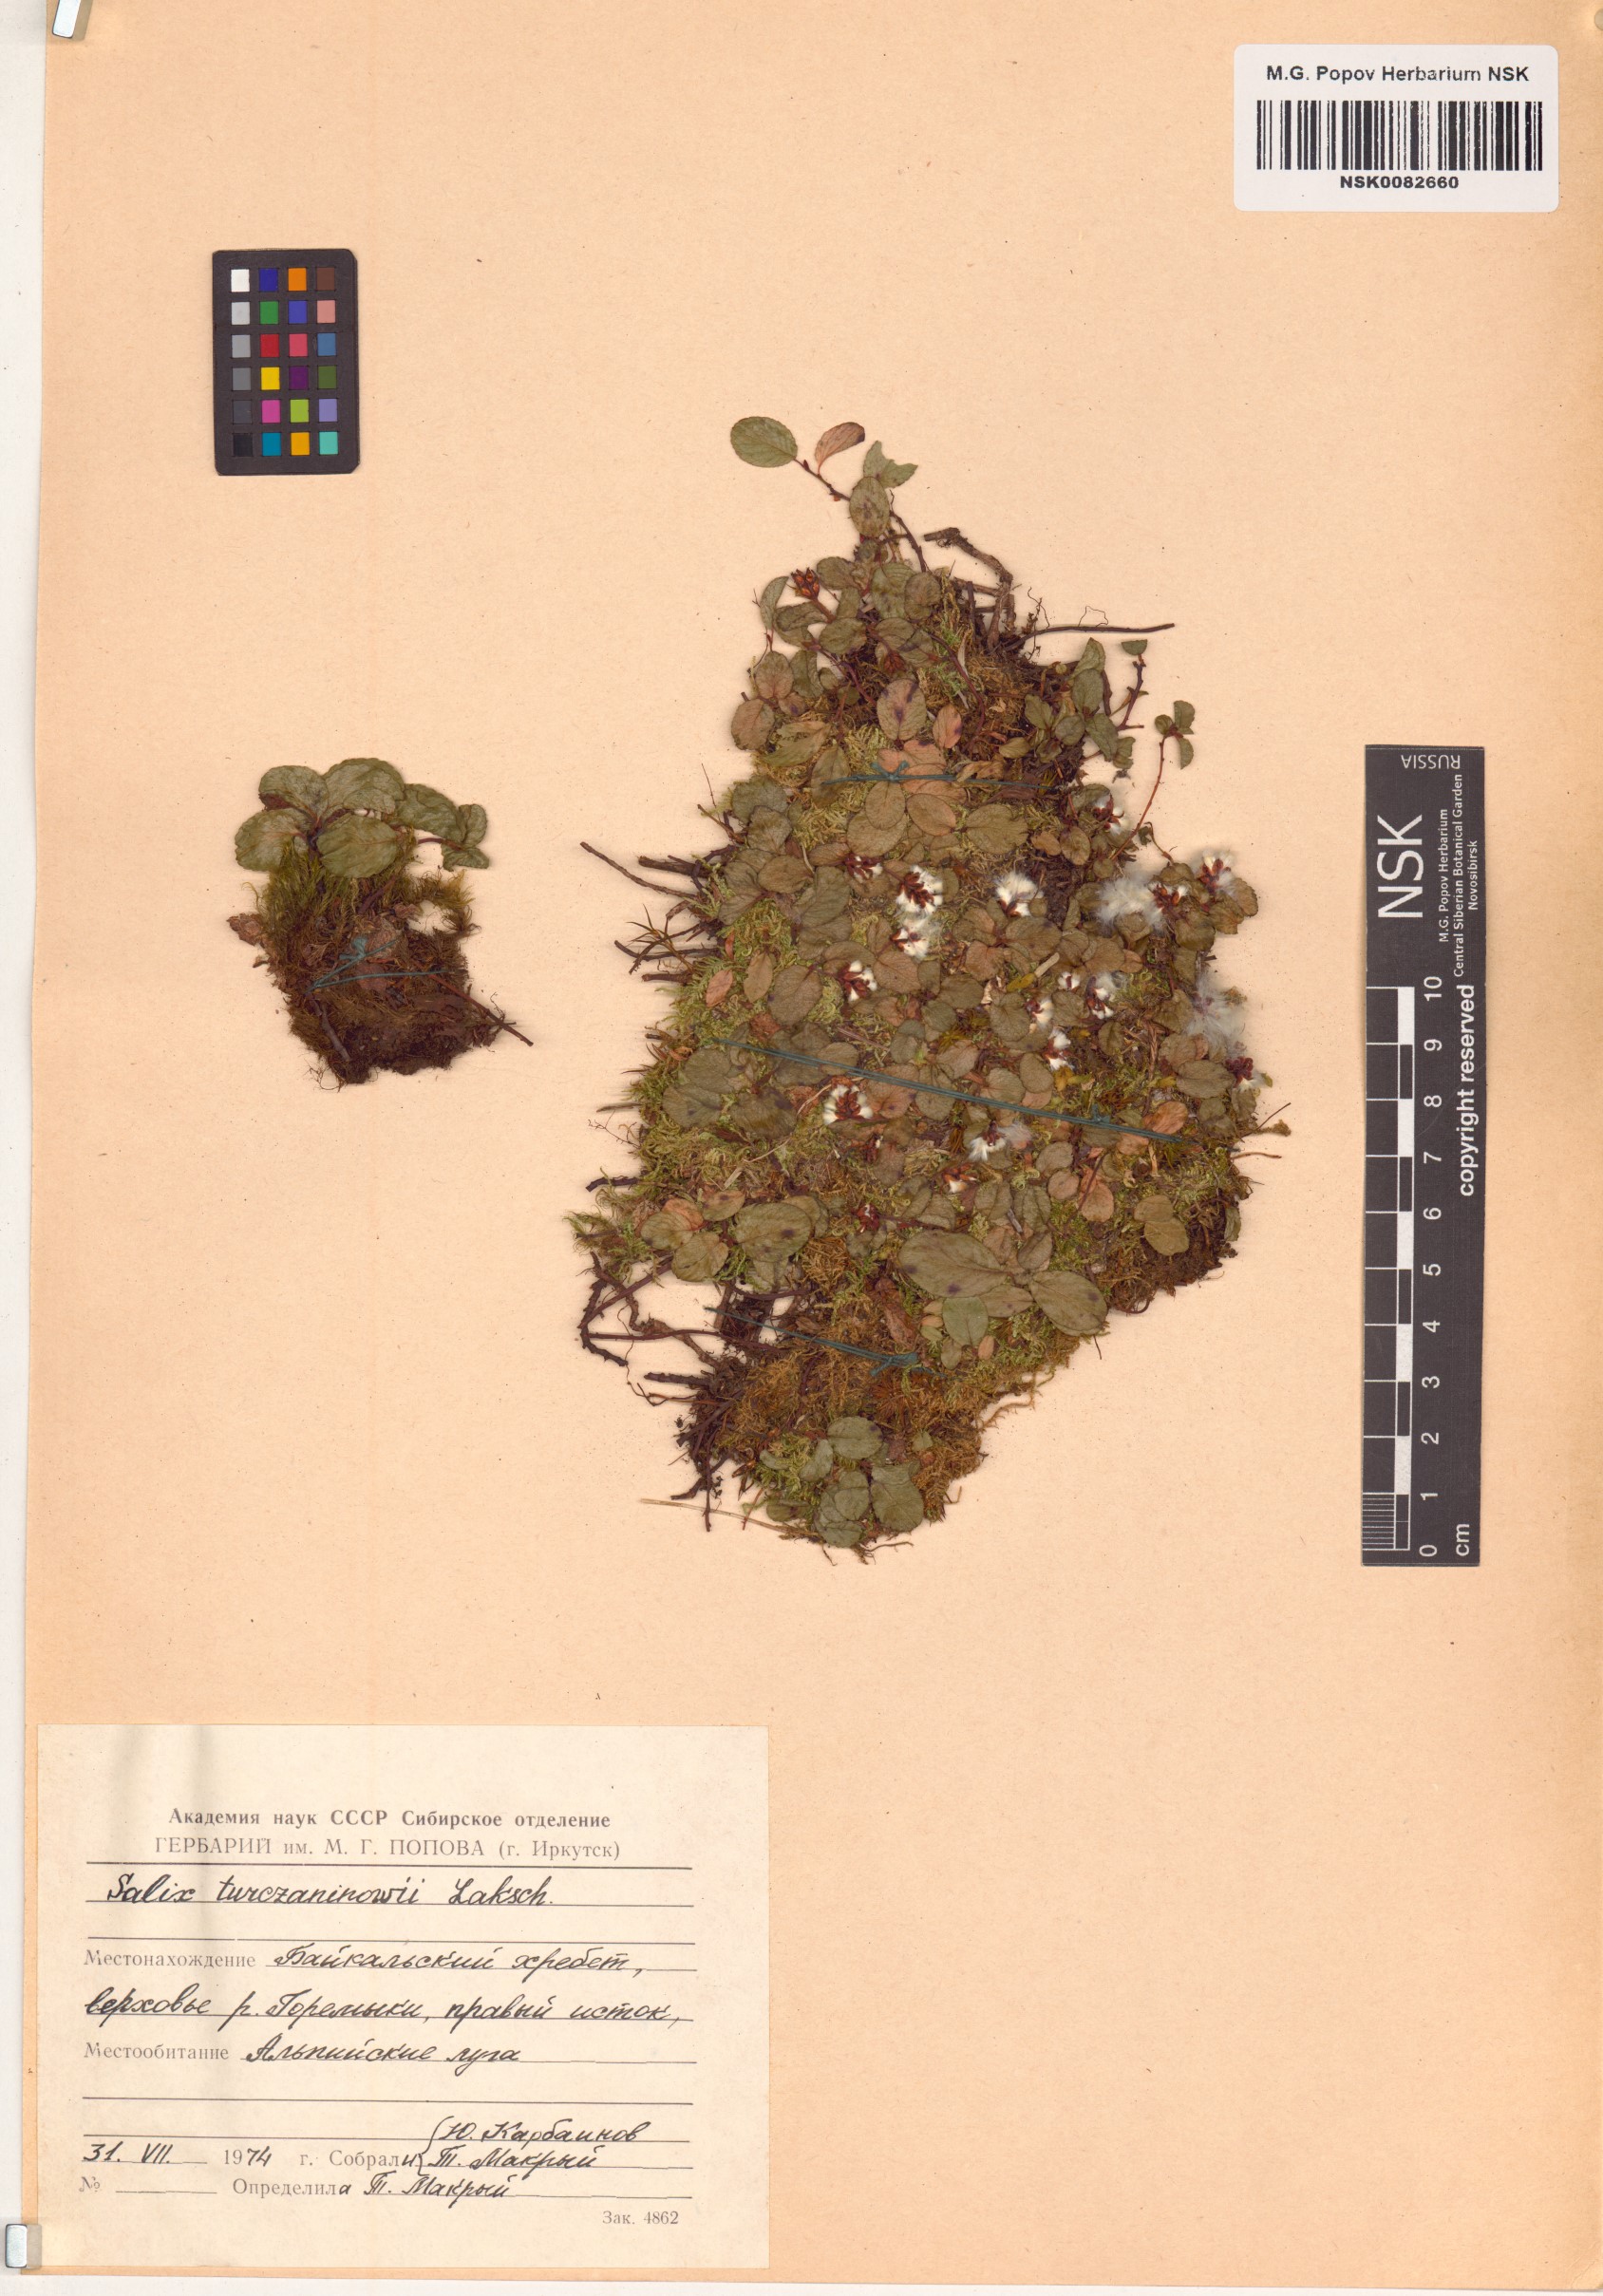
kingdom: Plantae
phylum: Tracheophyta
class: Magnoliopsida
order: Malpighiales
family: Salicaceae
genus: Salix
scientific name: Salix turczaninowii
